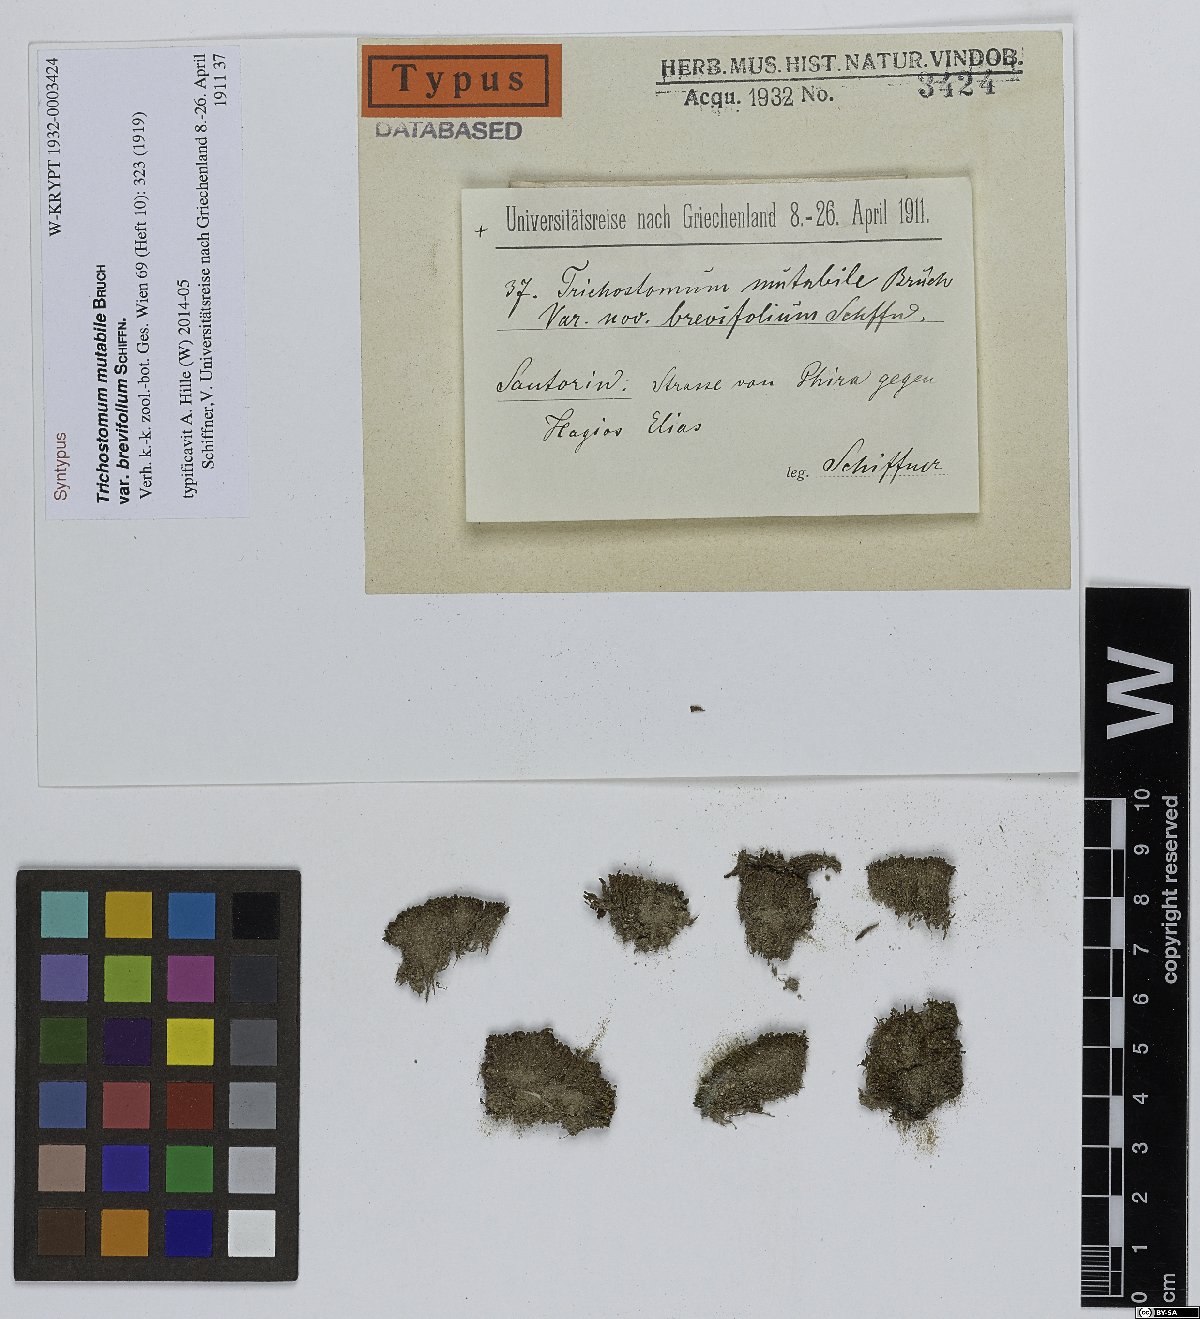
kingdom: Plantae
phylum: Bryophyta
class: Bryopsida
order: Pottiales
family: Pottiaceae
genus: Trichostomum
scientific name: Trichostomum brachydontium
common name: Variable crisp-moss
